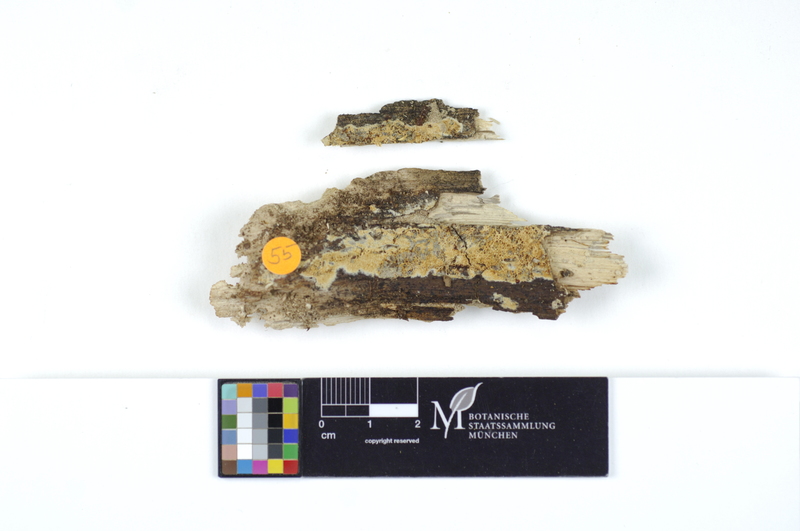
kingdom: Plantae
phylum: Tracheophyta
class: Magnoliopsida
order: Fagales
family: Fagaceae
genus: Quercus
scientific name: Quercus
